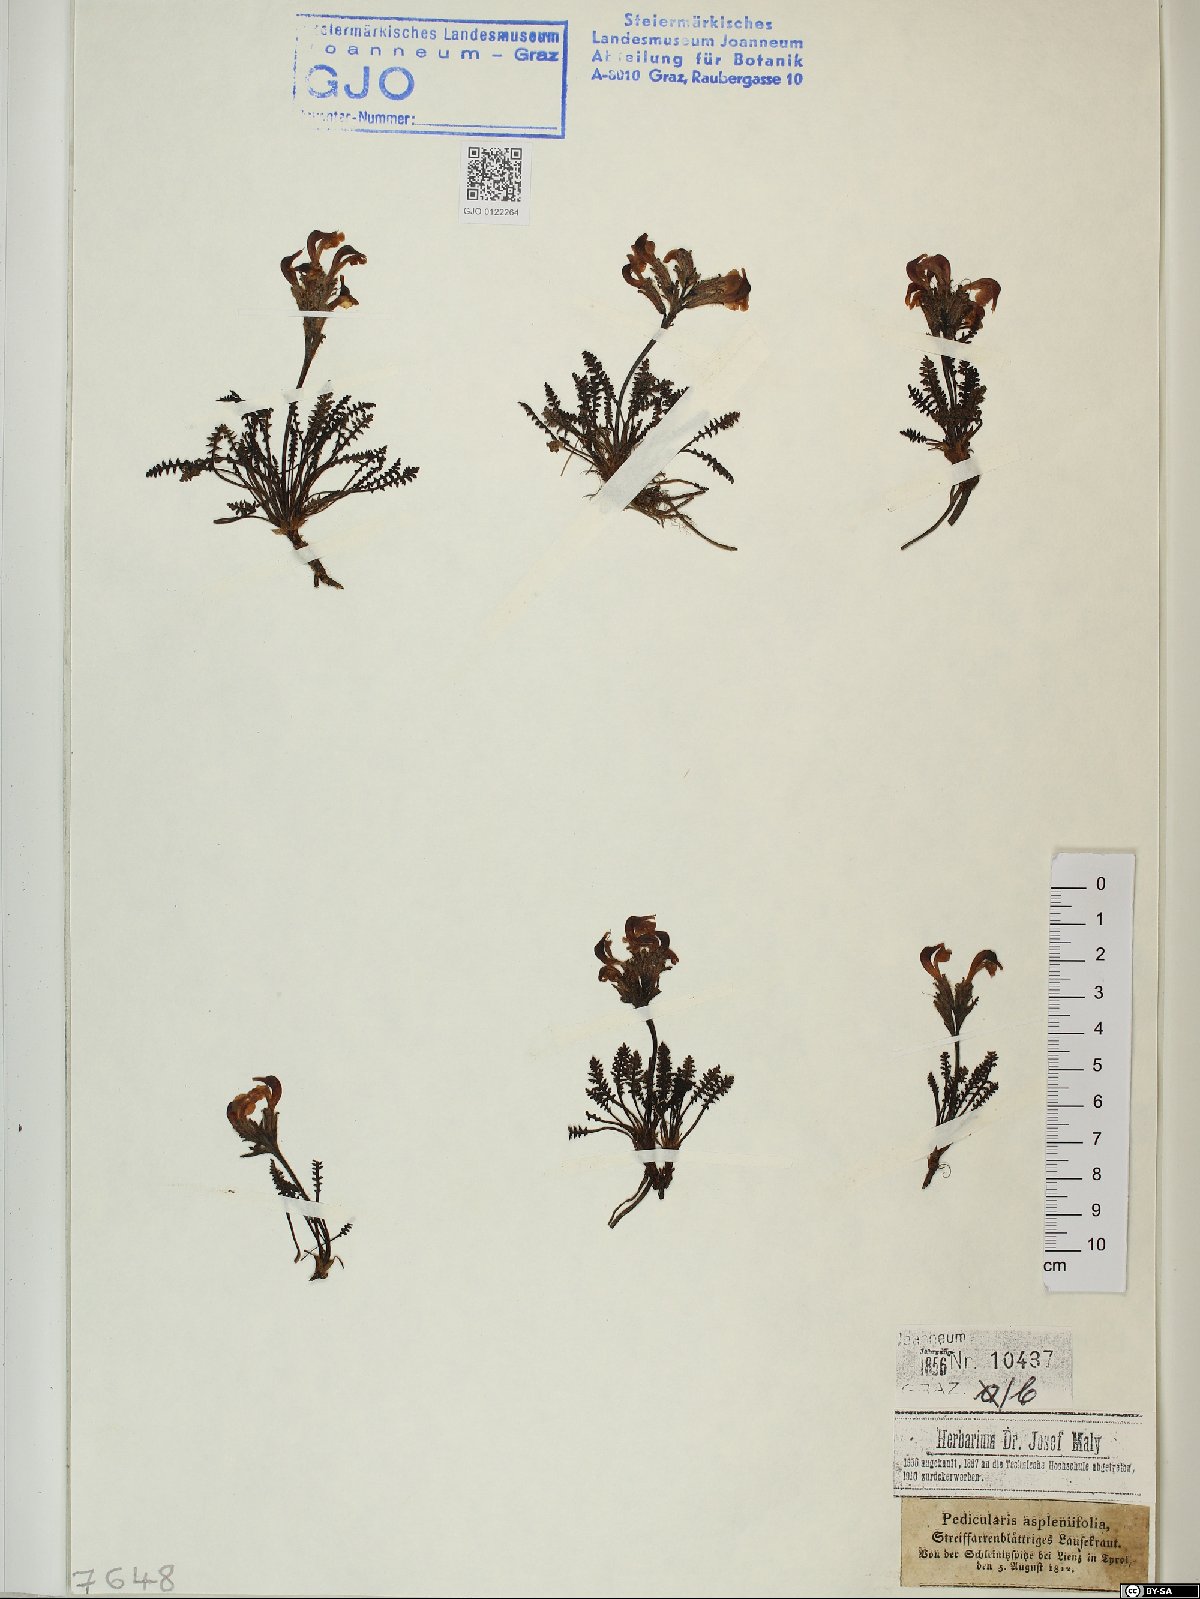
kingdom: Plantae
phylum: Tracheophyta
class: Magnoliopsida
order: Lamiales
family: Orobanchaceae
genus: Pedicularis
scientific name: Pedicularis asplenifolia
